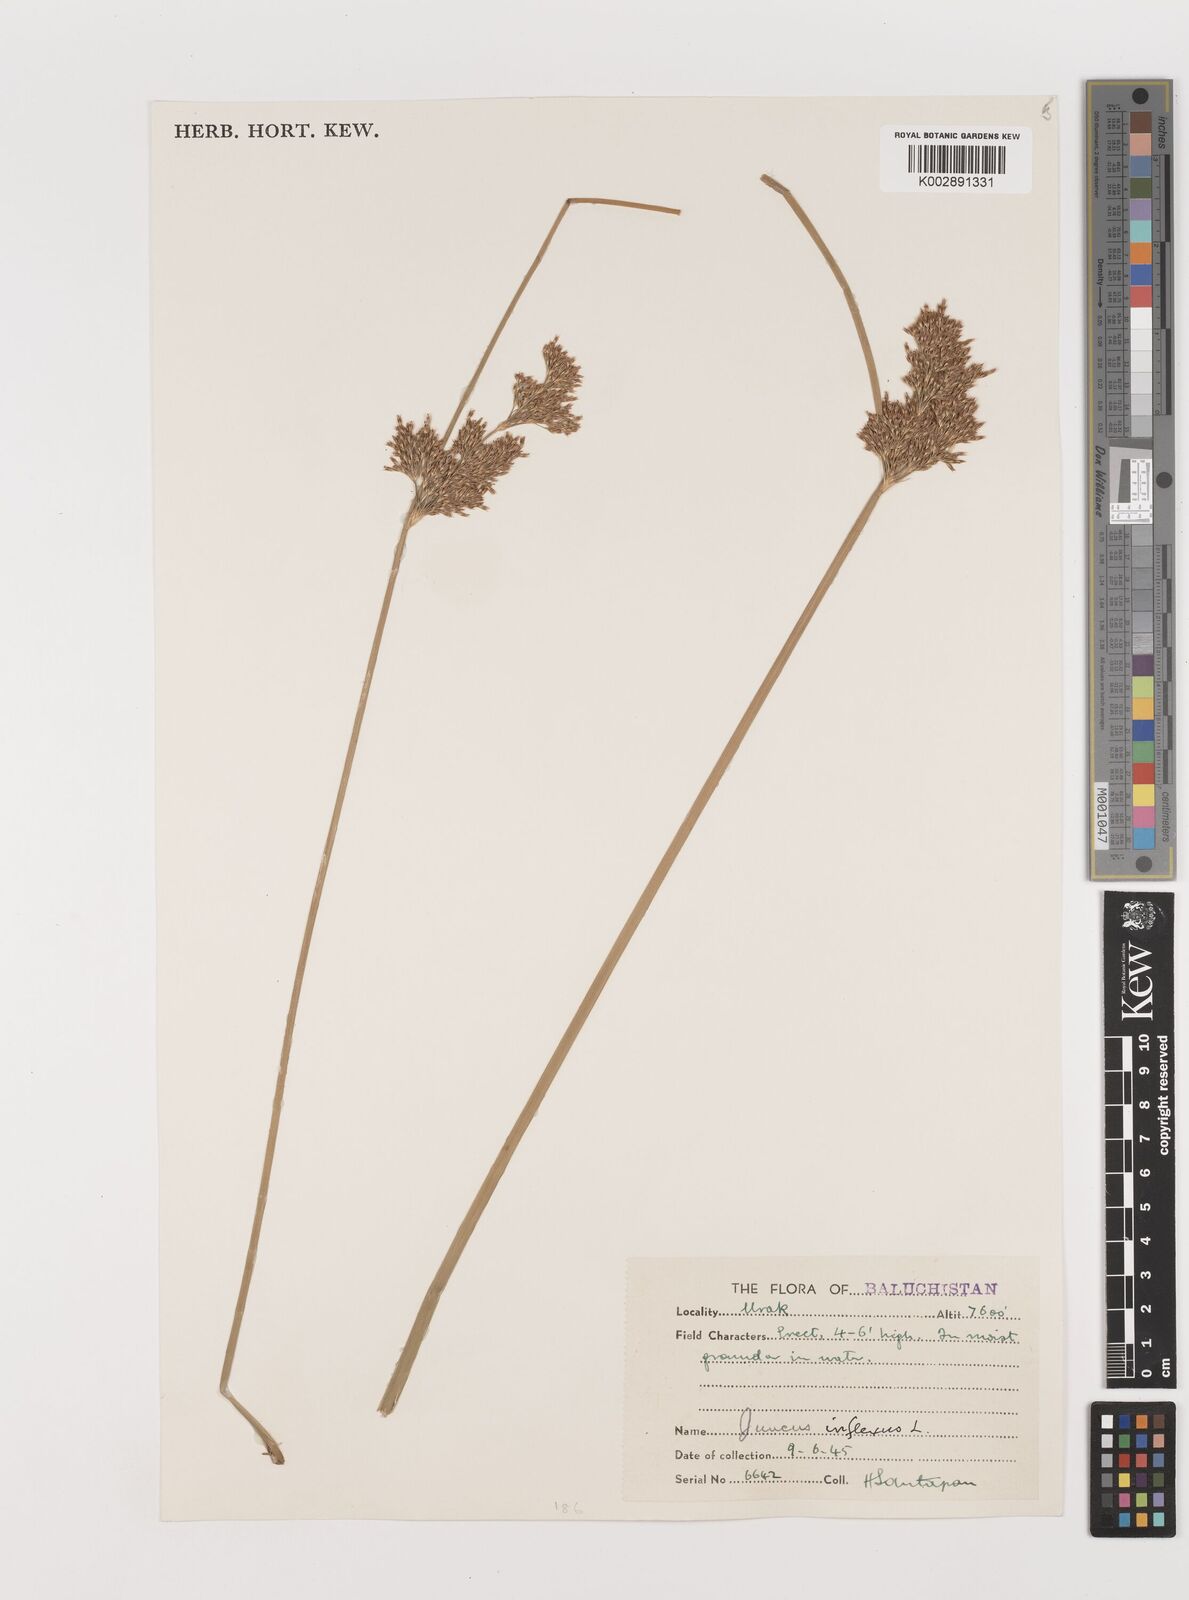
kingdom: Plantae
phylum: Tracheophyta
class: Liliopsida
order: Poales
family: Juncaceae
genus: Juncus
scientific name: Juncus inflexus
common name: Hard rush
